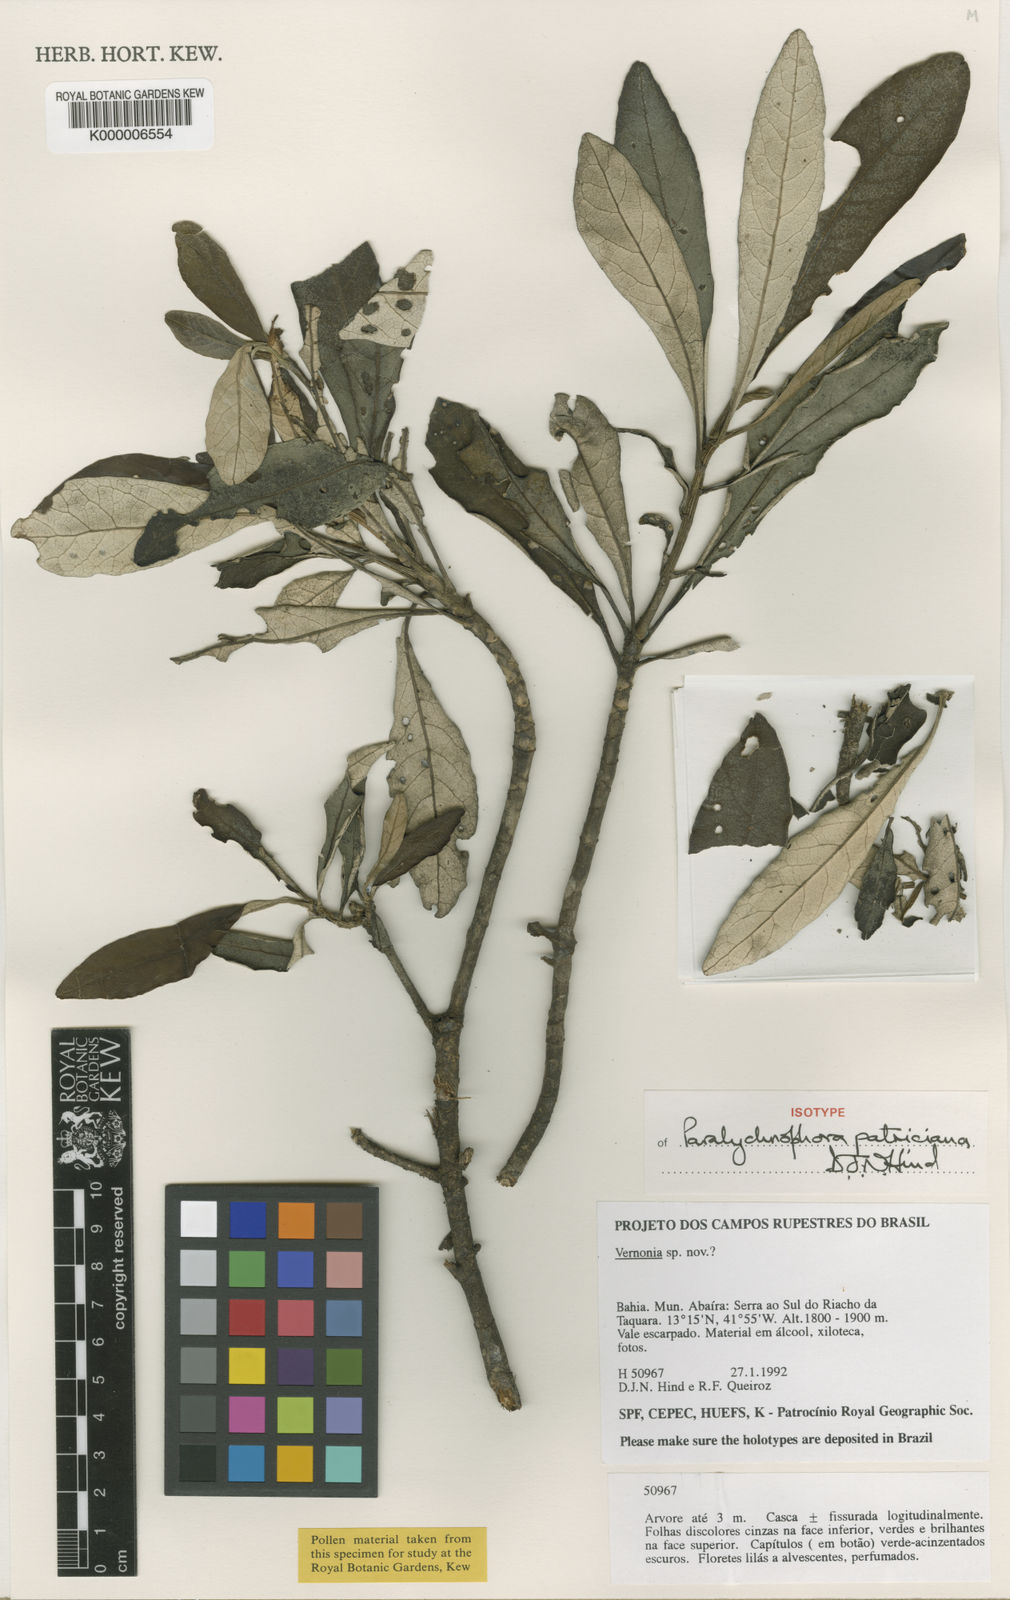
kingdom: Plantae
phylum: Tracheophyta
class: Magnoliopsida
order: Asterales
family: Asteraceae
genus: Paralychnophora
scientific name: Paralychnophora patriciana
